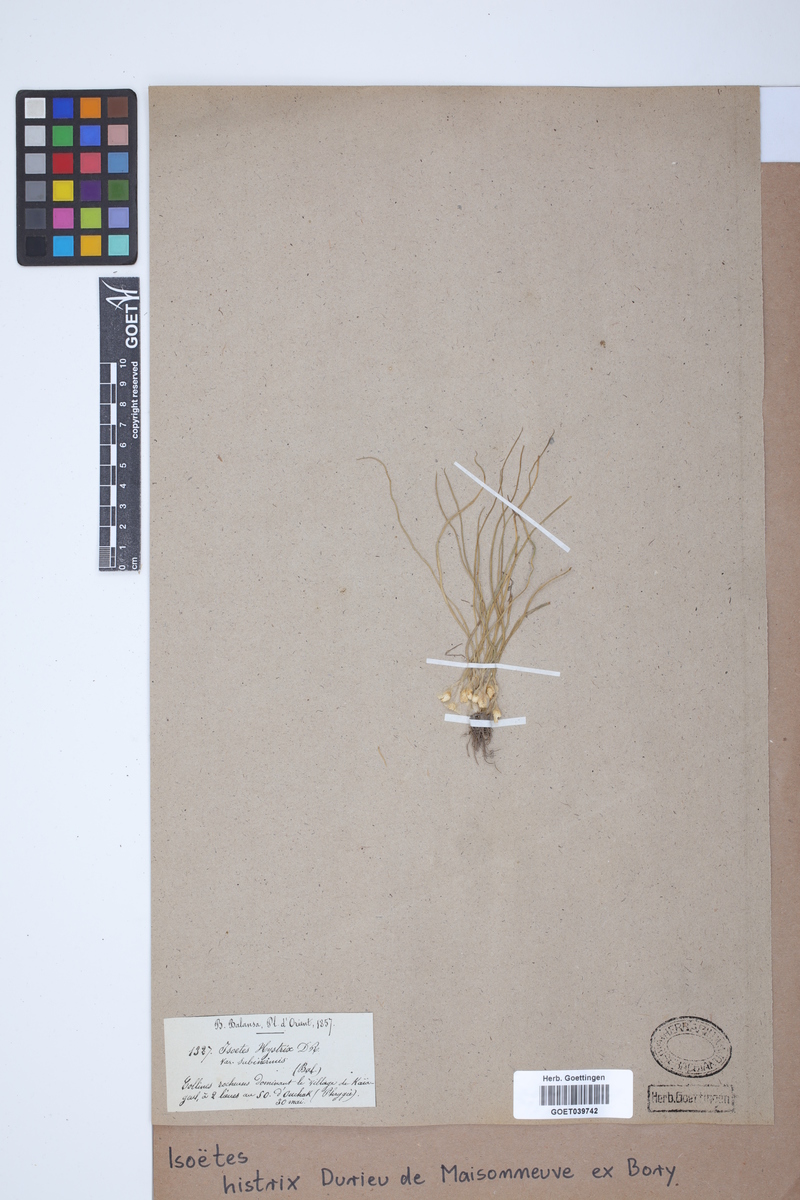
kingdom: Plantae
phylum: Tracheophyta
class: Lycopodiopsida
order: Isoetales
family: Isoetaceae
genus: Isoetes
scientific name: Isoetes histrix
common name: Land quillwort
